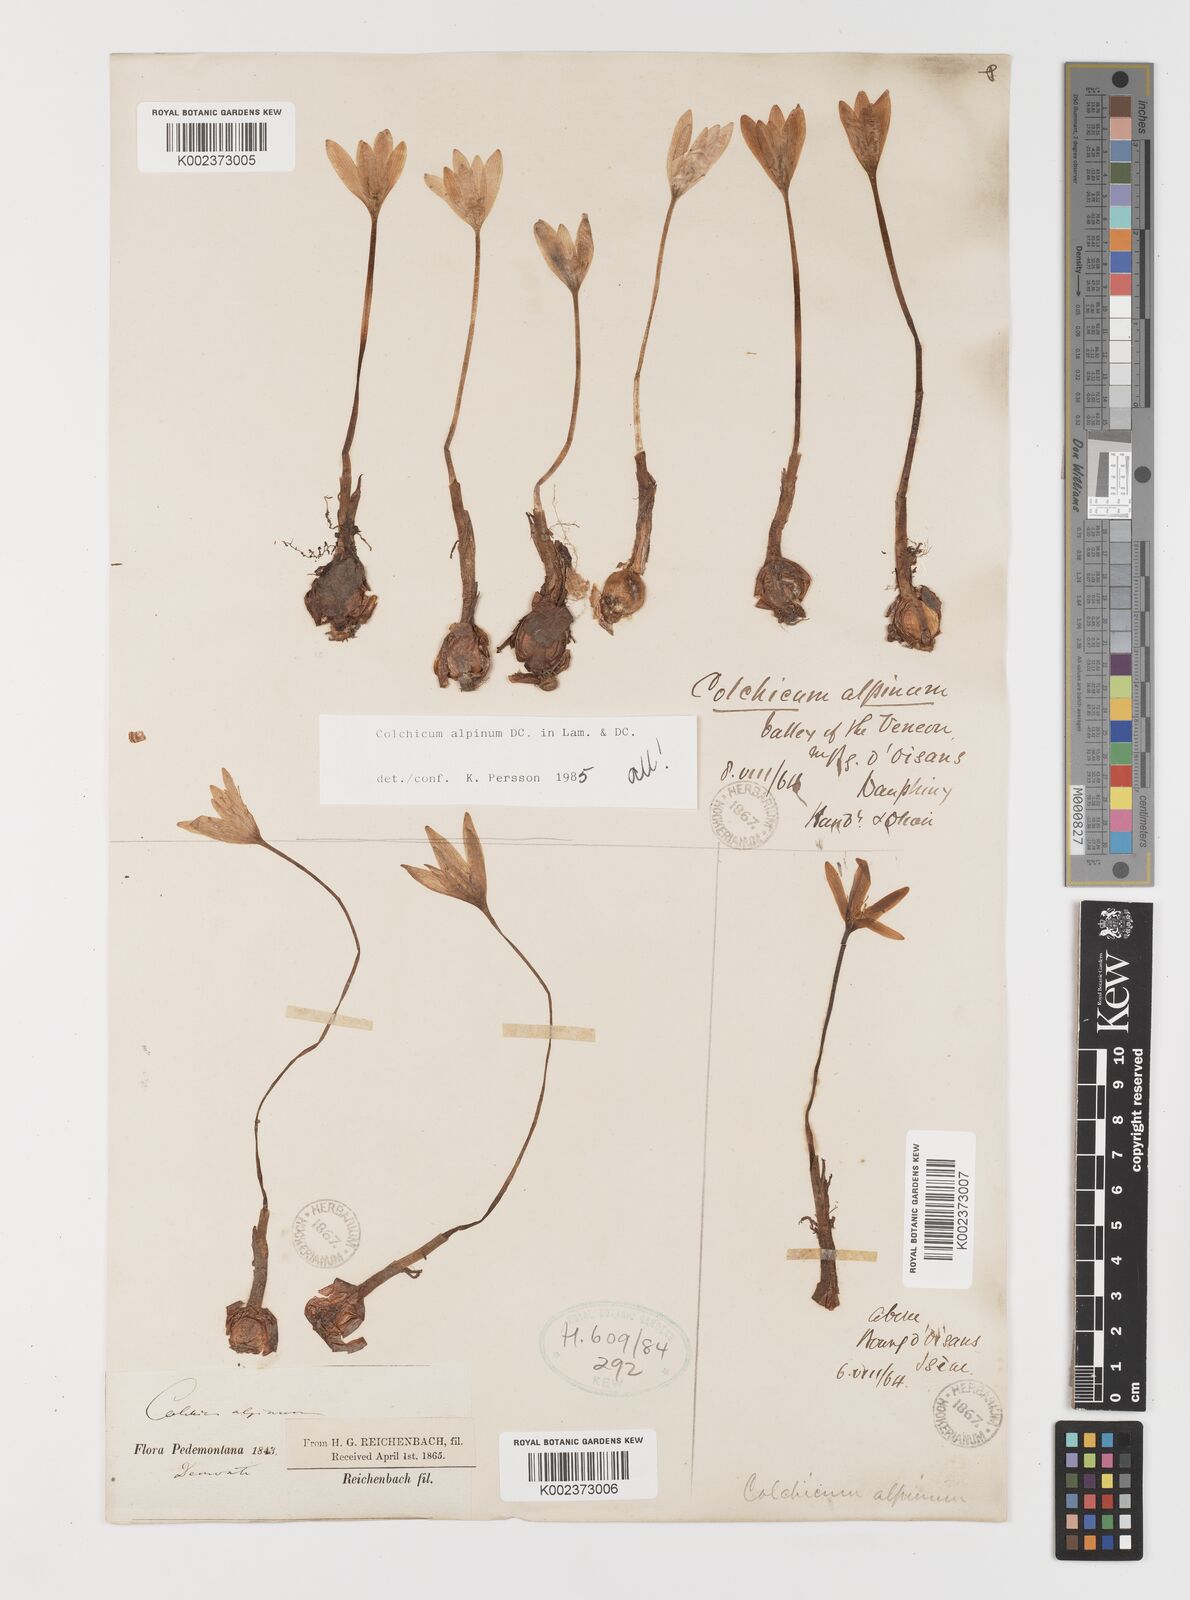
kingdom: Plantae
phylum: Tracheophyta
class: Liliopsida
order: Liliales
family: Colchicaceae
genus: Colchicum
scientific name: Colchicum alpinum
